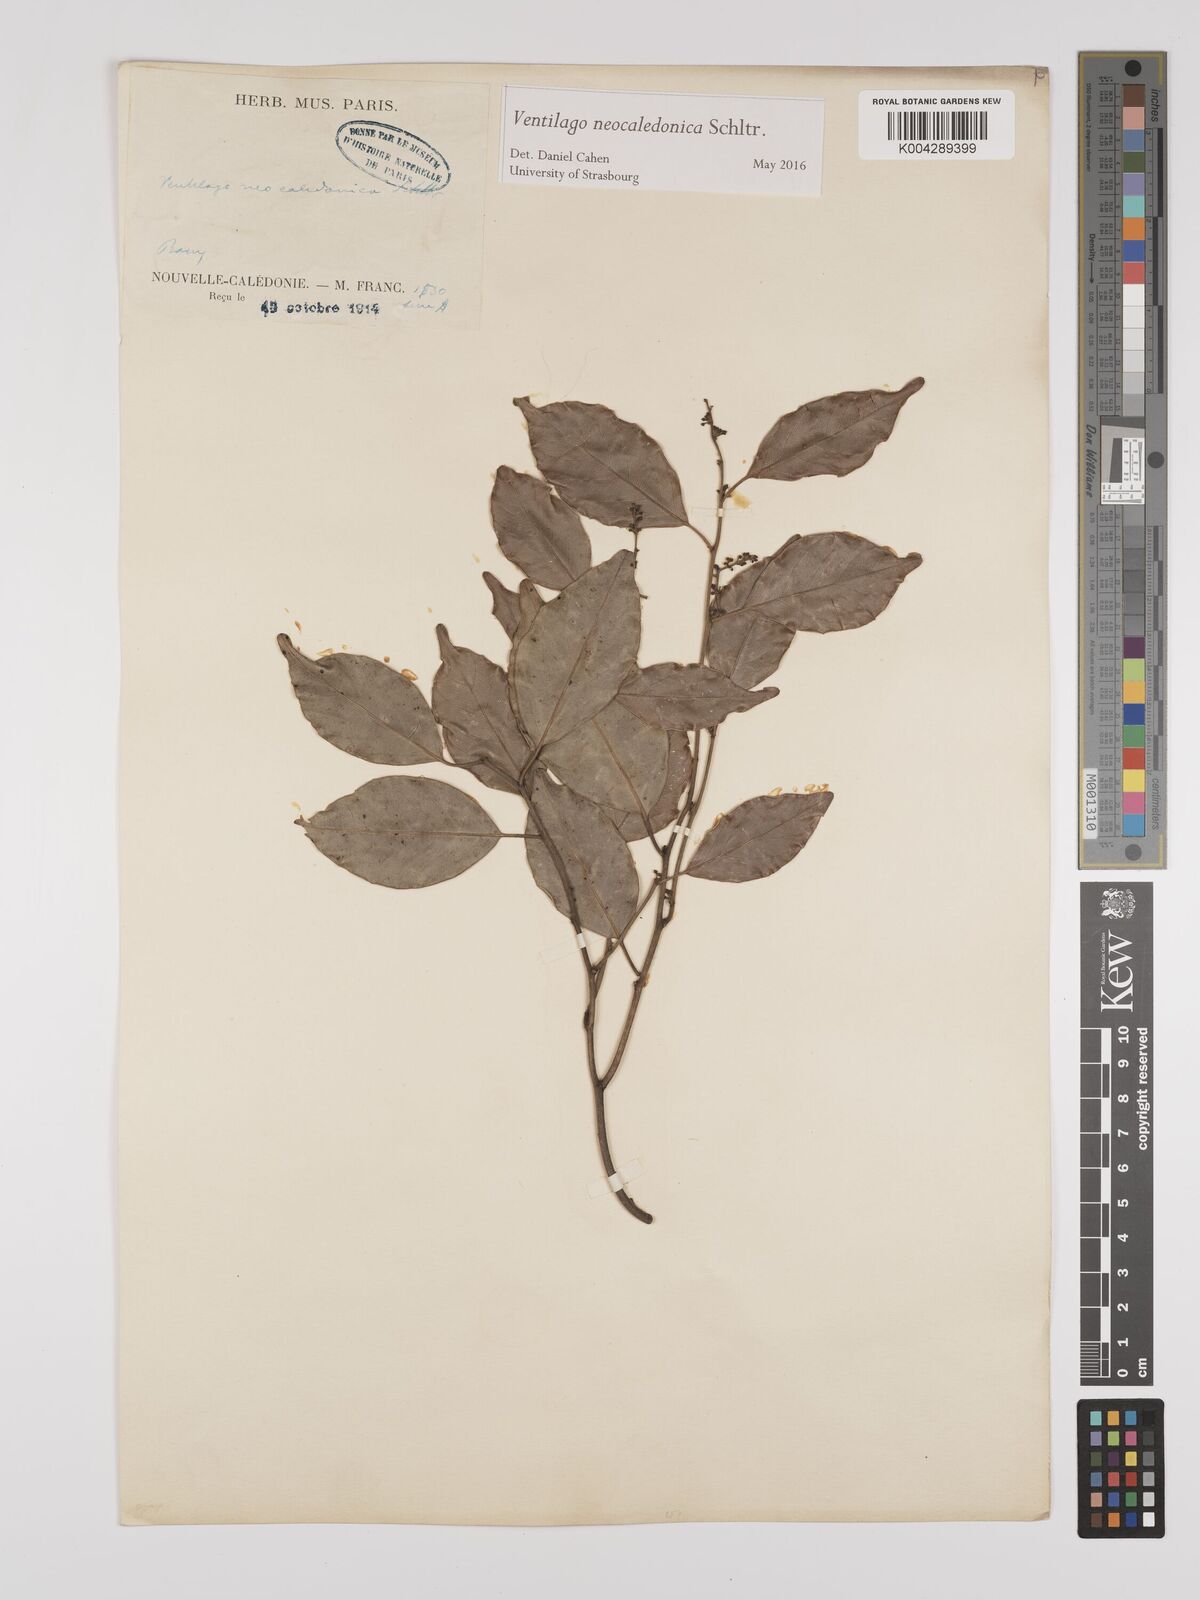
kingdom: Plantae
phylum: Tracheophyta
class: Magnoliopsida
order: Rosales
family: Rhamnaceae
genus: Ventilago
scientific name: Ventilago neocaledonica
